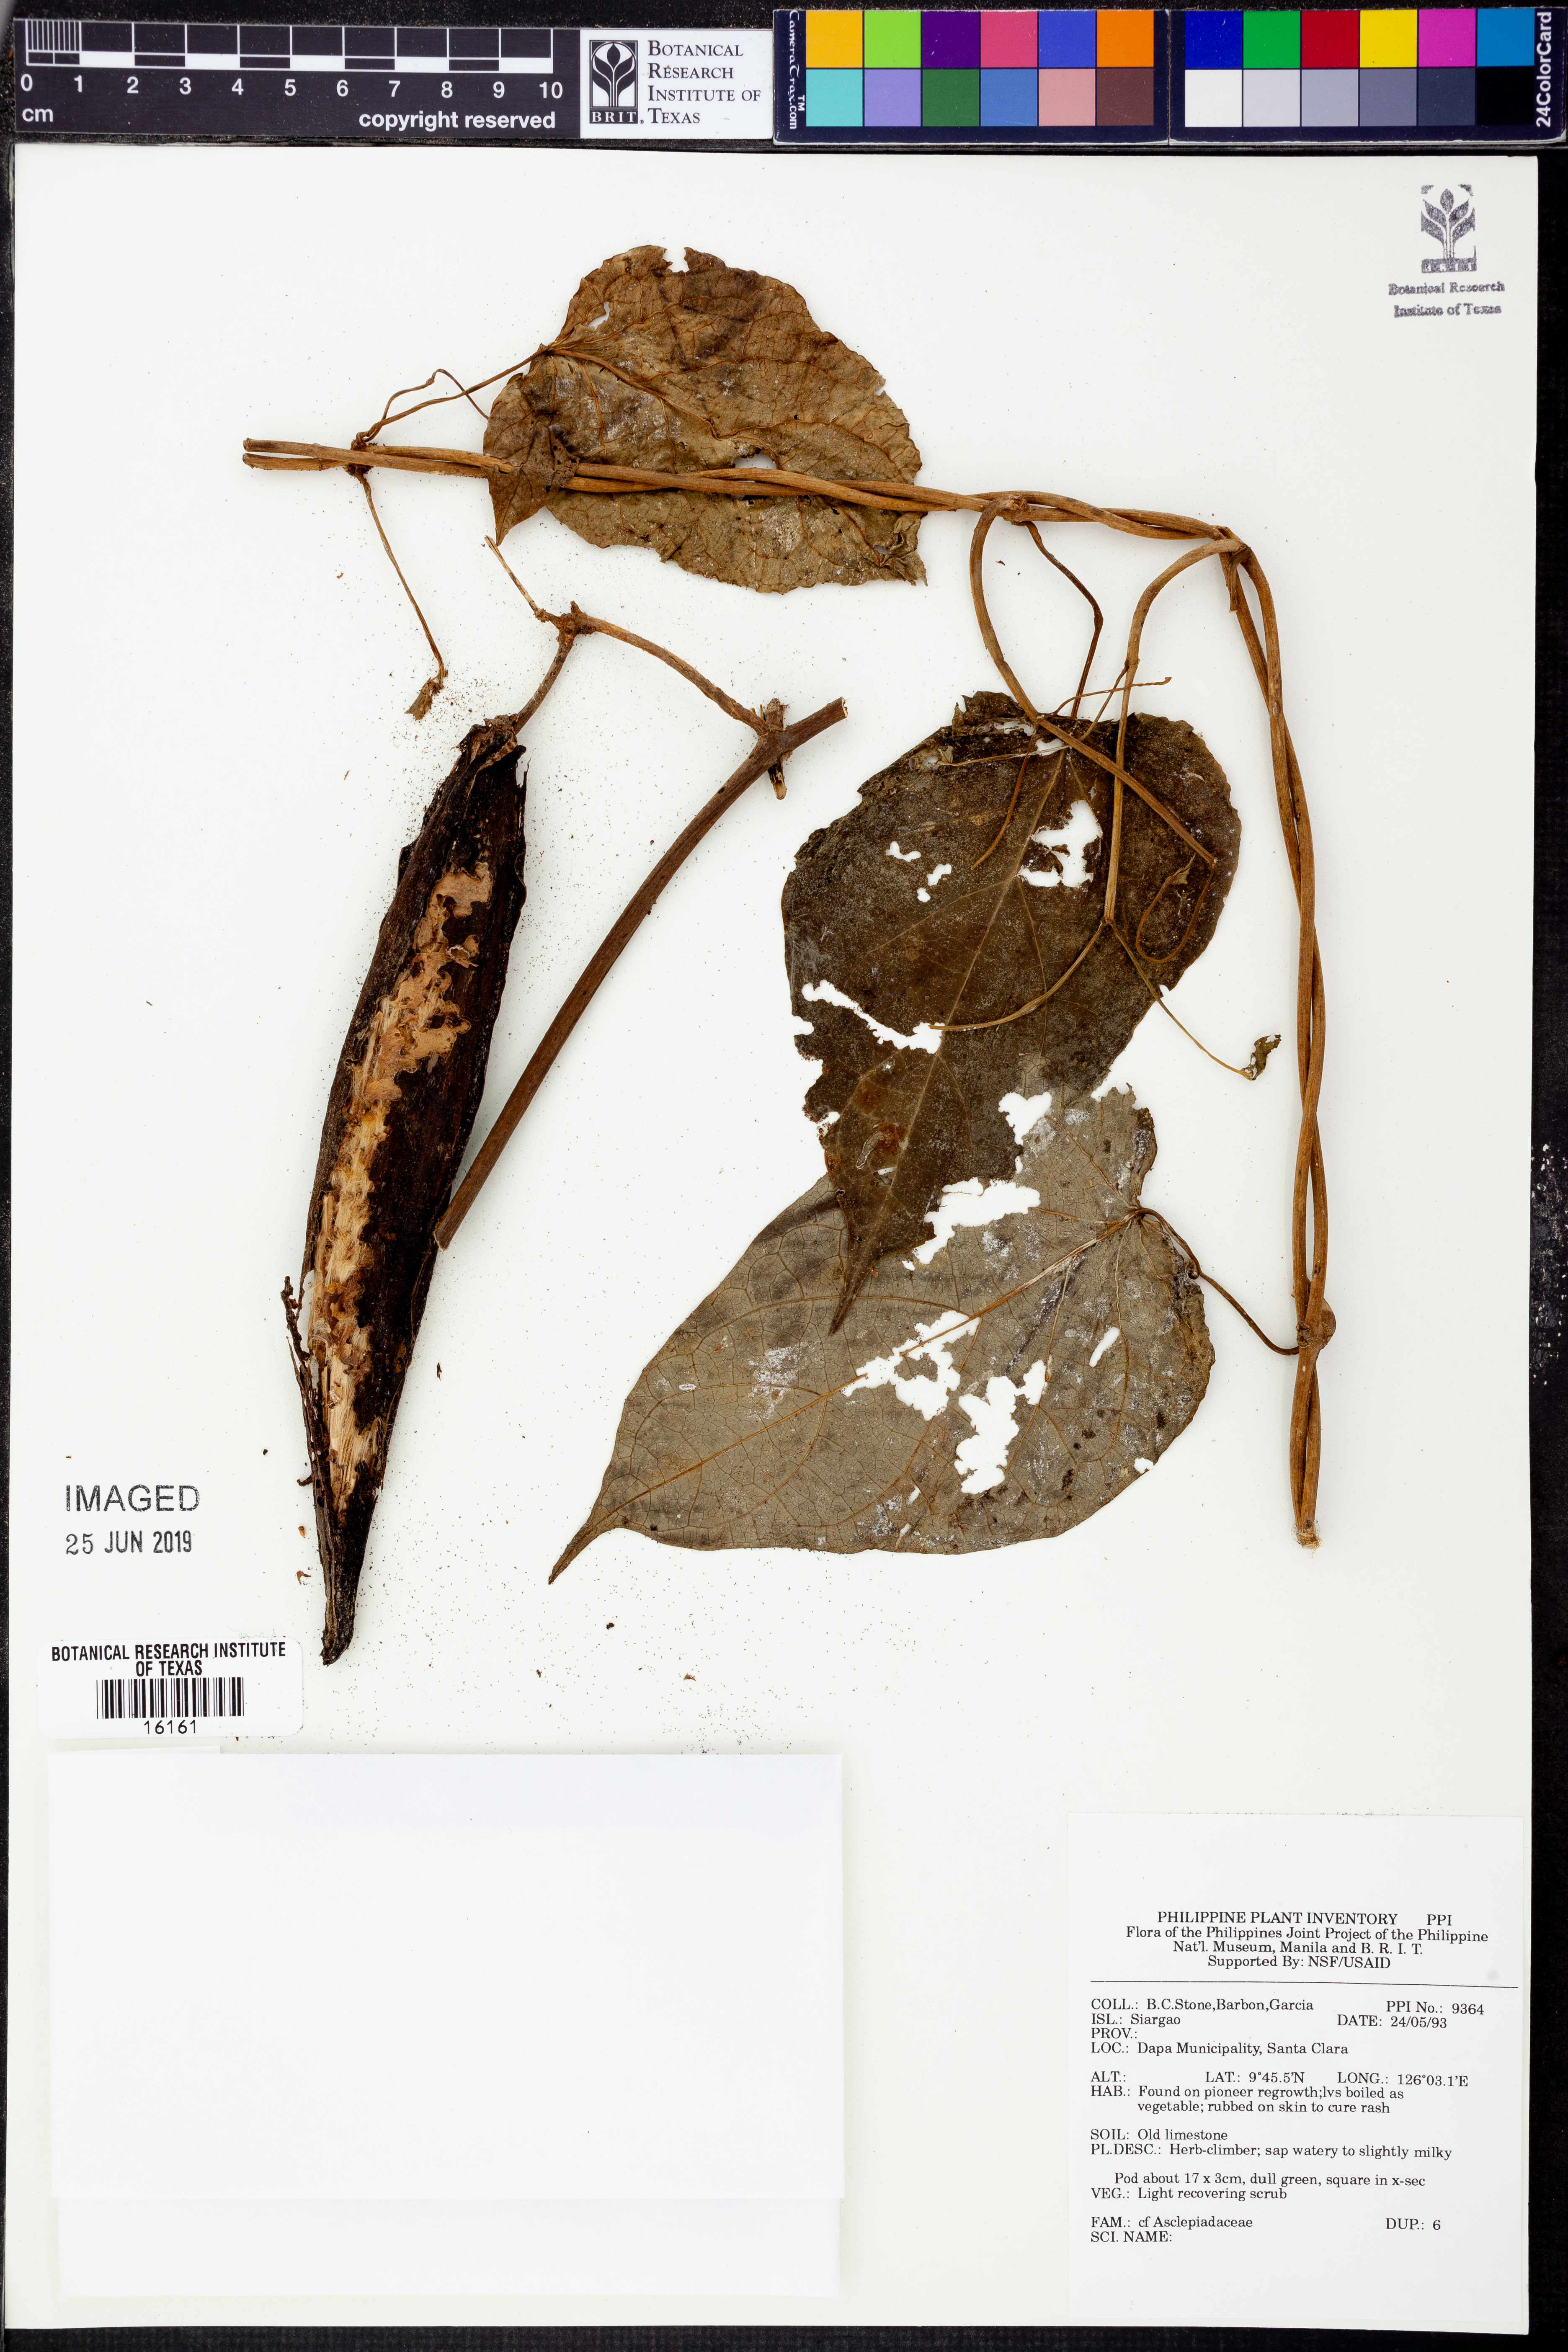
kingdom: Plantae
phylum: Tracheophyta
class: Magnoliopsida
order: Gentianales
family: Apocynaceae
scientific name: Apocynaceae
